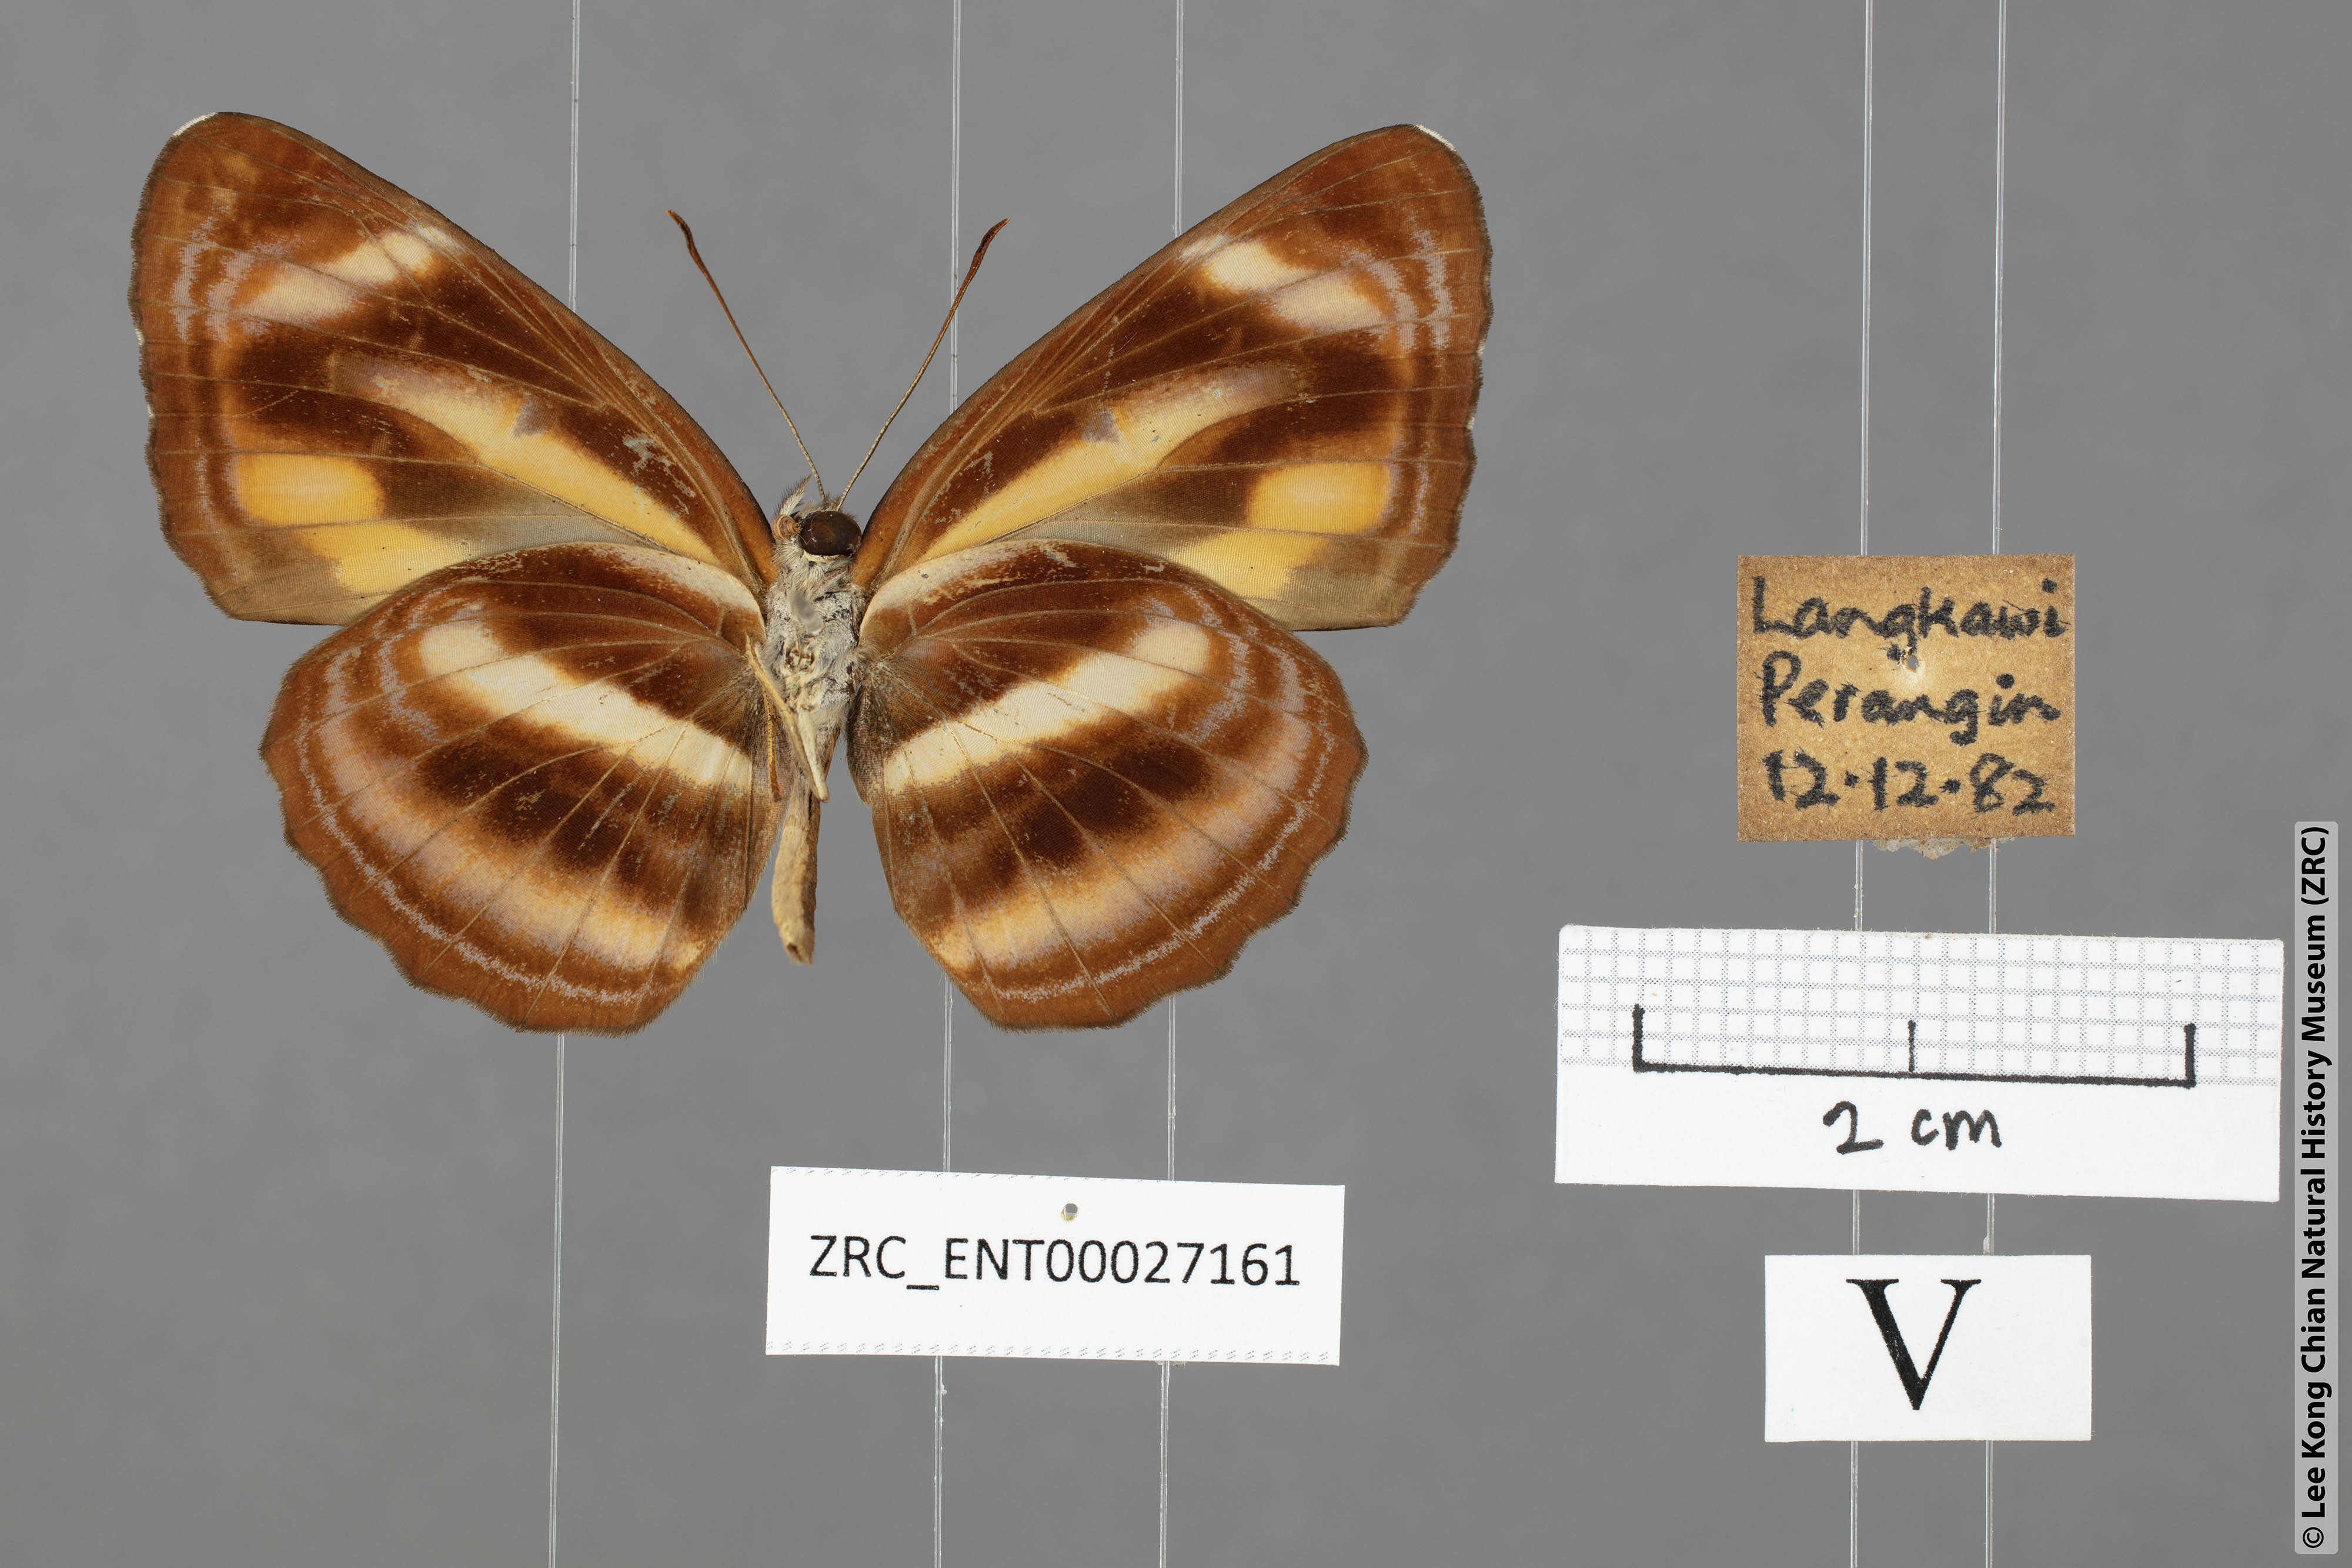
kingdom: Animalia
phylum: Arthropoda
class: Insecta
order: Lepidoptera
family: Nymphalidae
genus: Neptis
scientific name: Neptis miah
